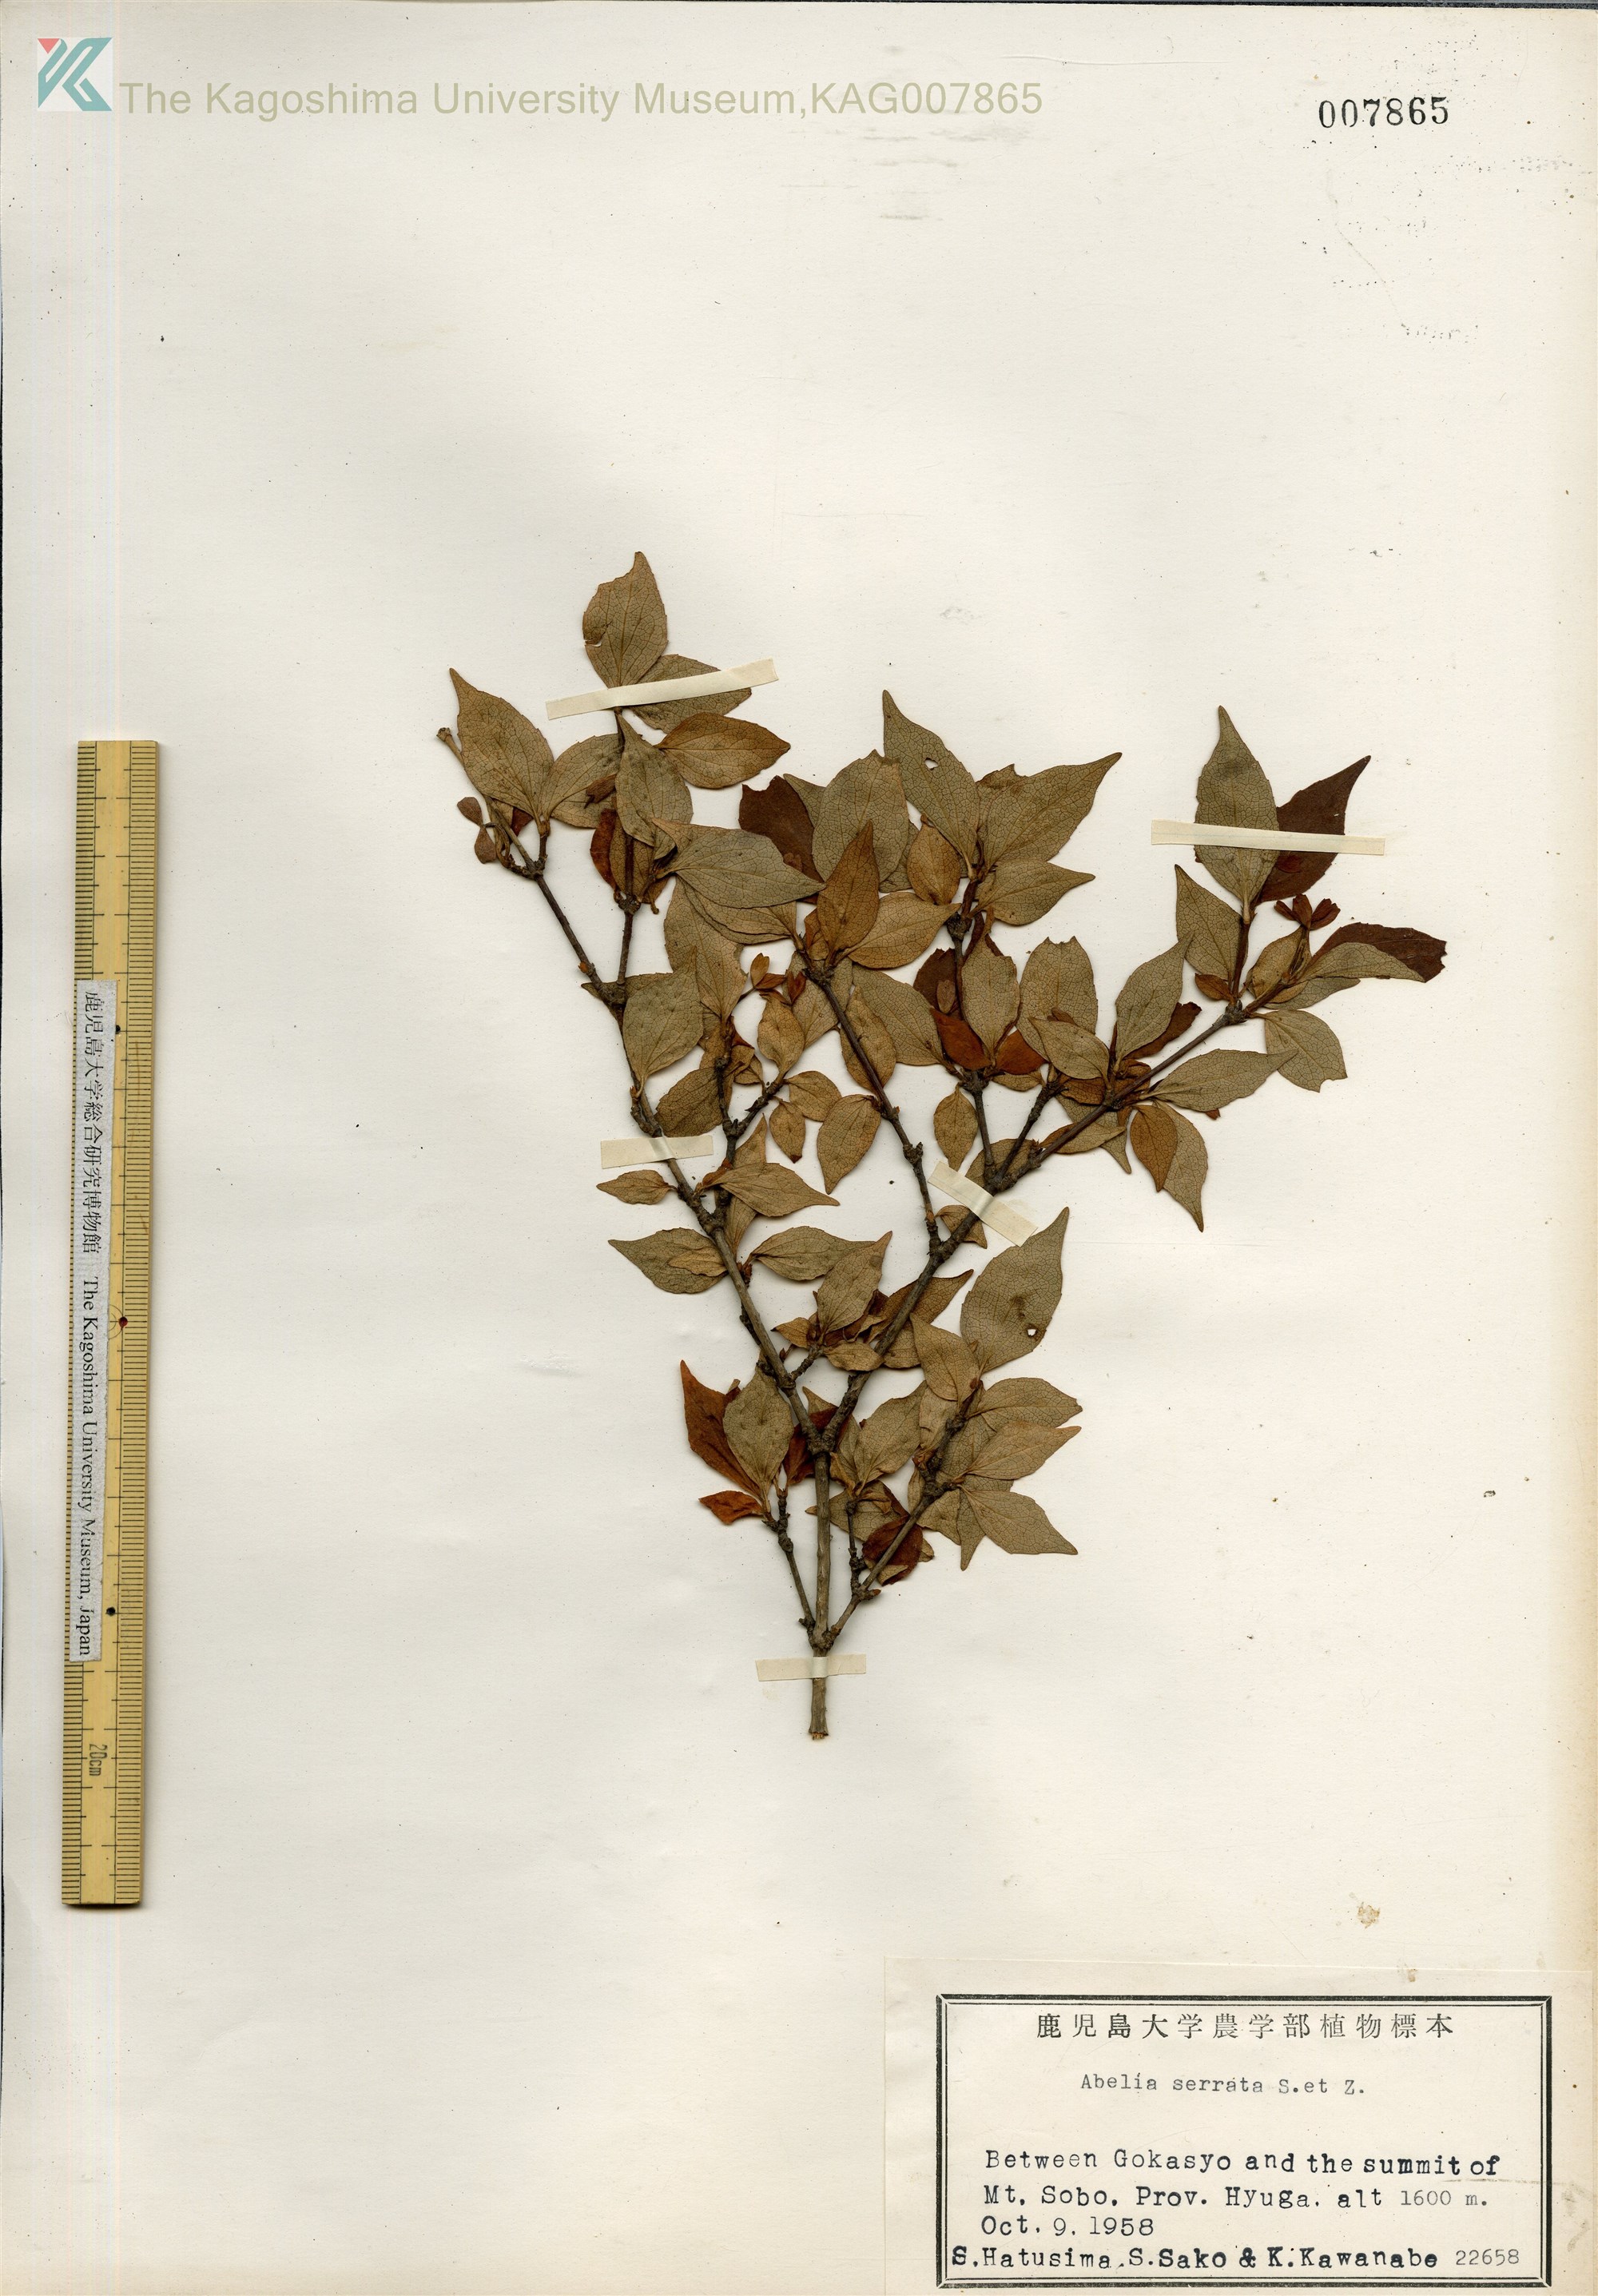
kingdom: Plantae
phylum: Tracheophyta
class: Magnoliopsida
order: Dipsacales
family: Caprifoliaceae
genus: Diabelia
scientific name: Diabelia serrata
